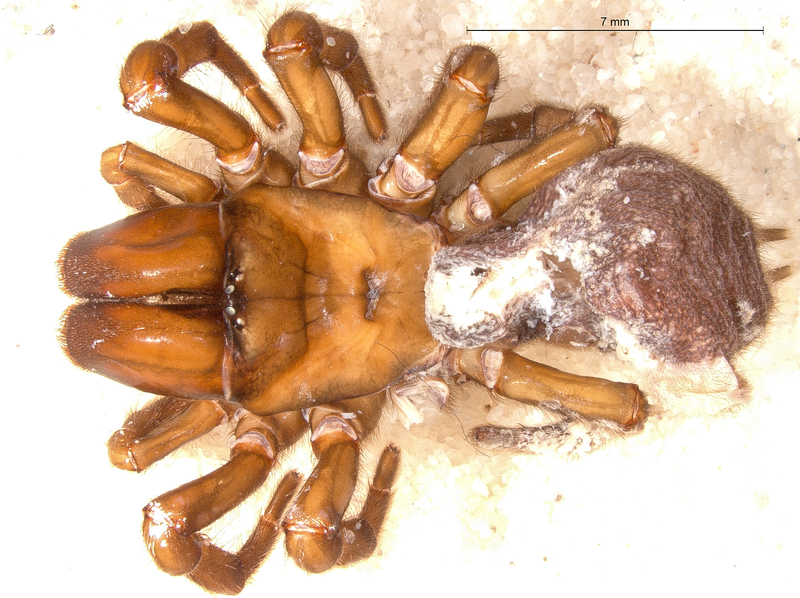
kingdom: Animalia
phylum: Arthropoda
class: Arachnida
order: Araneae
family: Atypidae
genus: Atypus
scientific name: Atypus piceus
